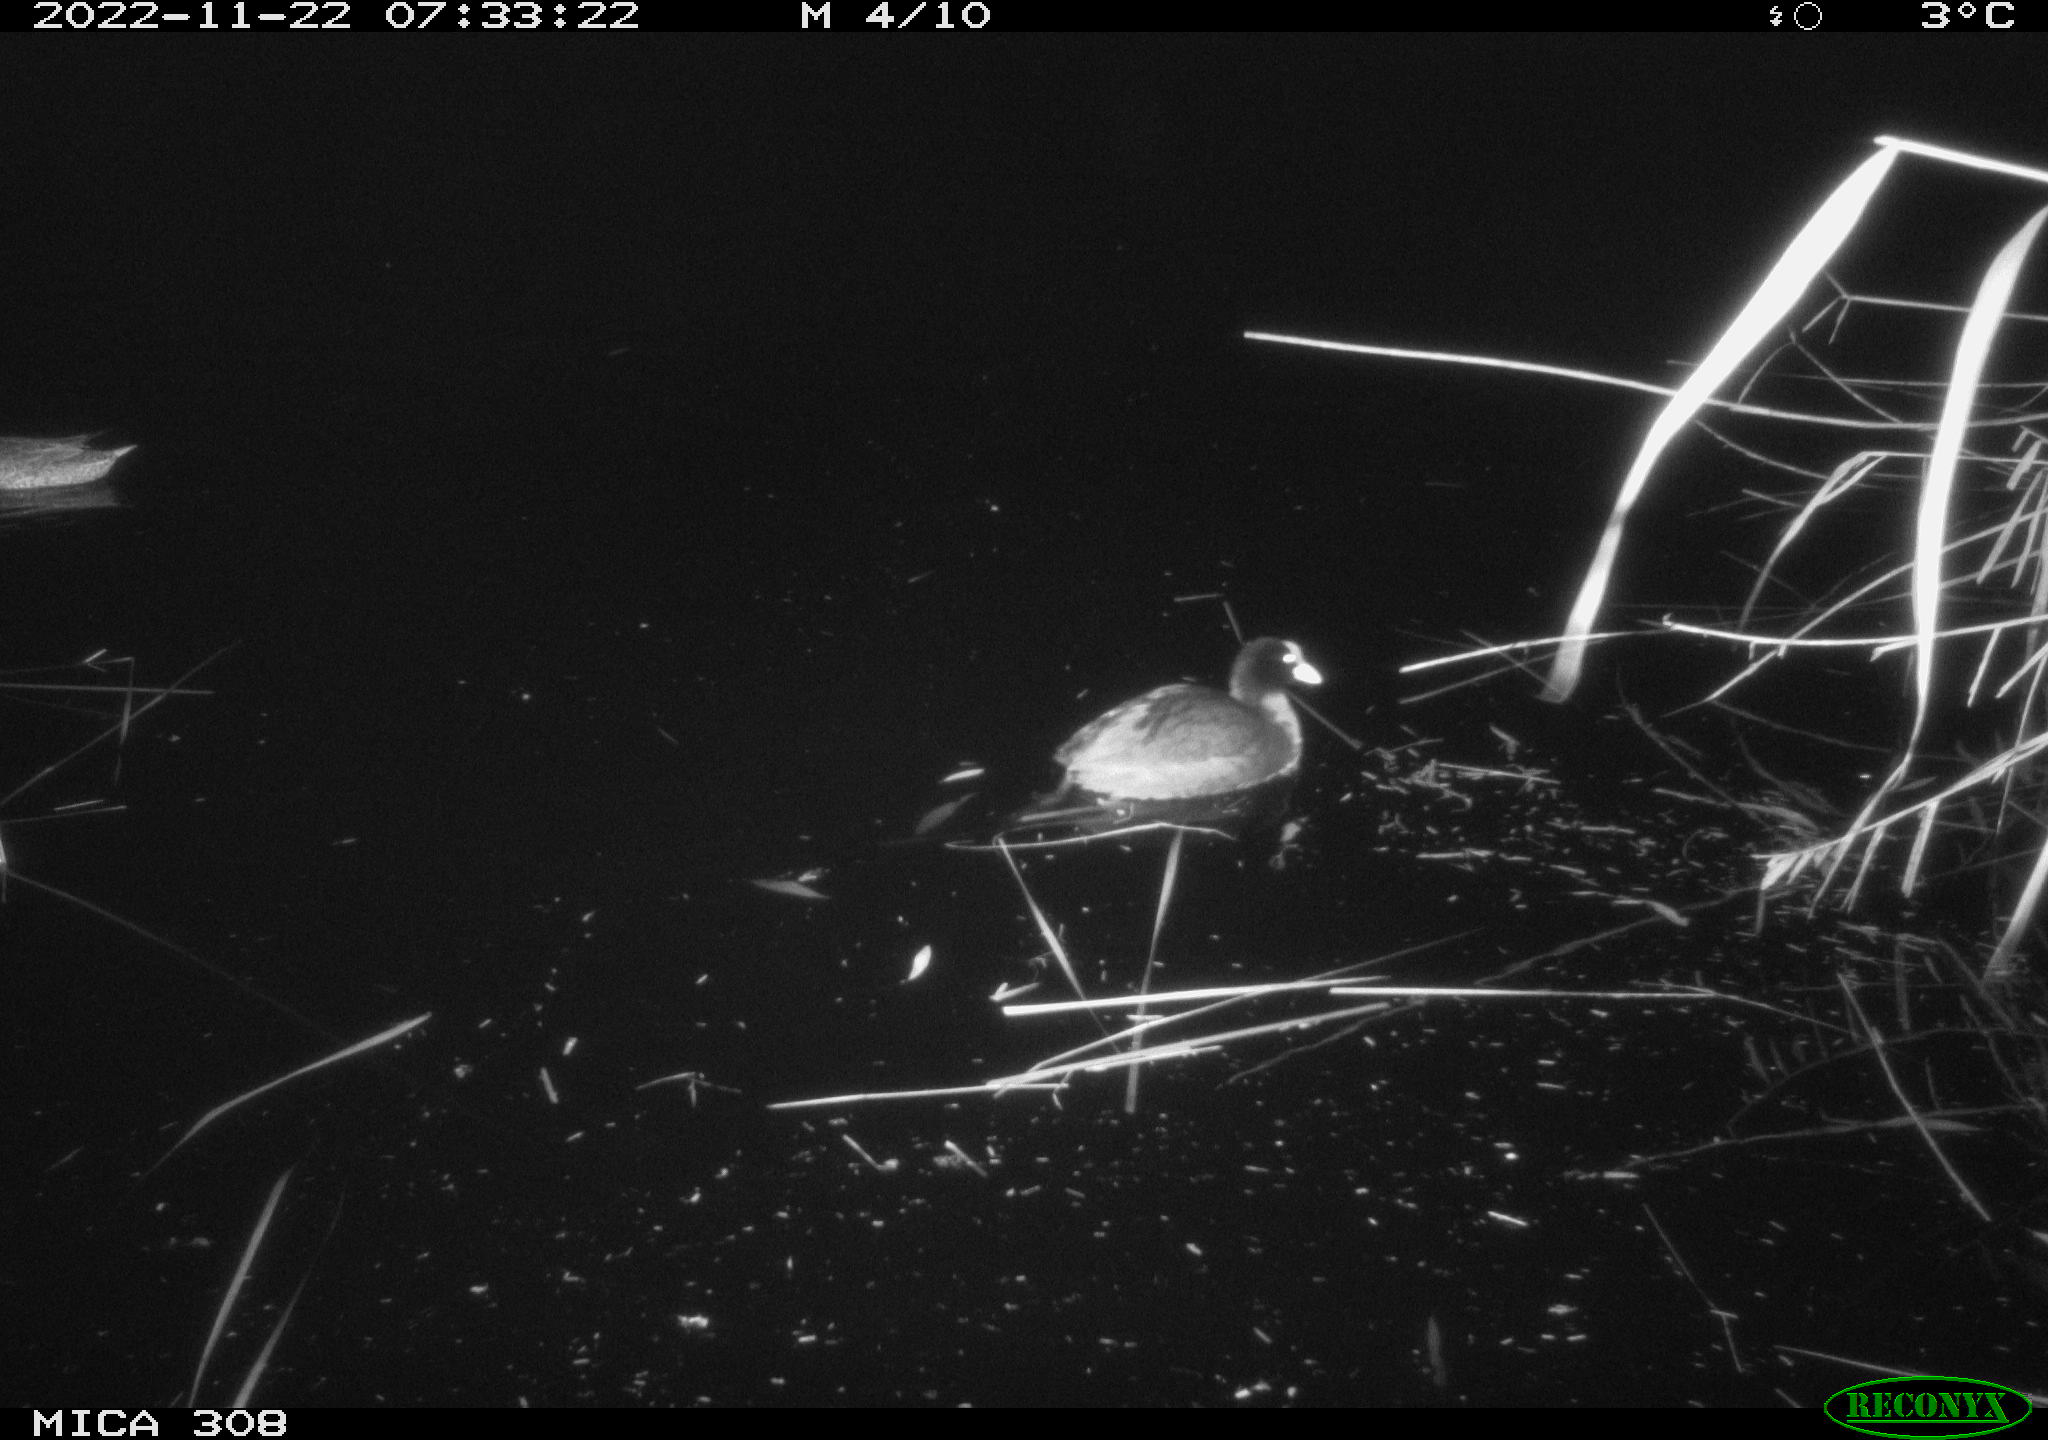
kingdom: Animalia
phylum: Chordata
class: Aves
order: Gruiformes
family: Rallidae
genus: Fulica
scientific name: Fulica atra
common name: Eurasian coot
